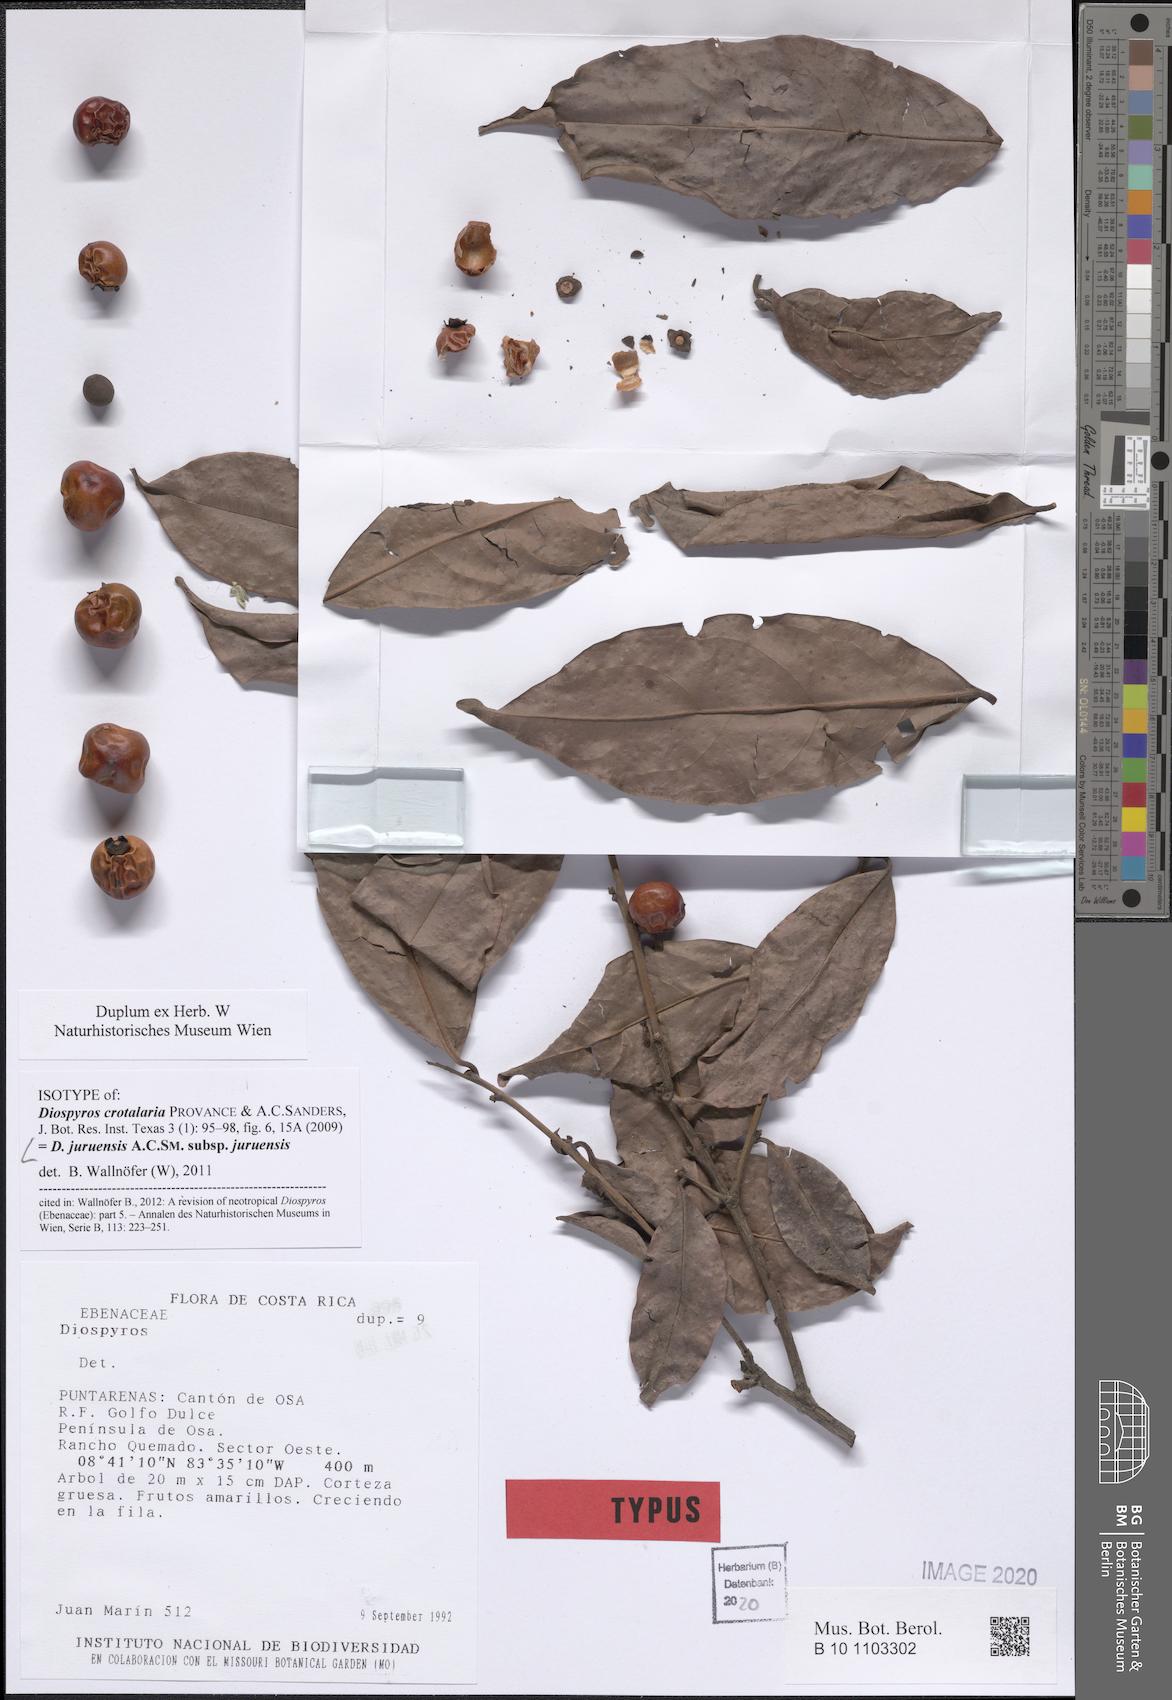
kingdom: Plantae
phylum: Tracheophyta
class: Magnoliopsida
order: Ericales
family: Ebenaceae
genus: Diospyros
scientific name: Diospyros juruensis
